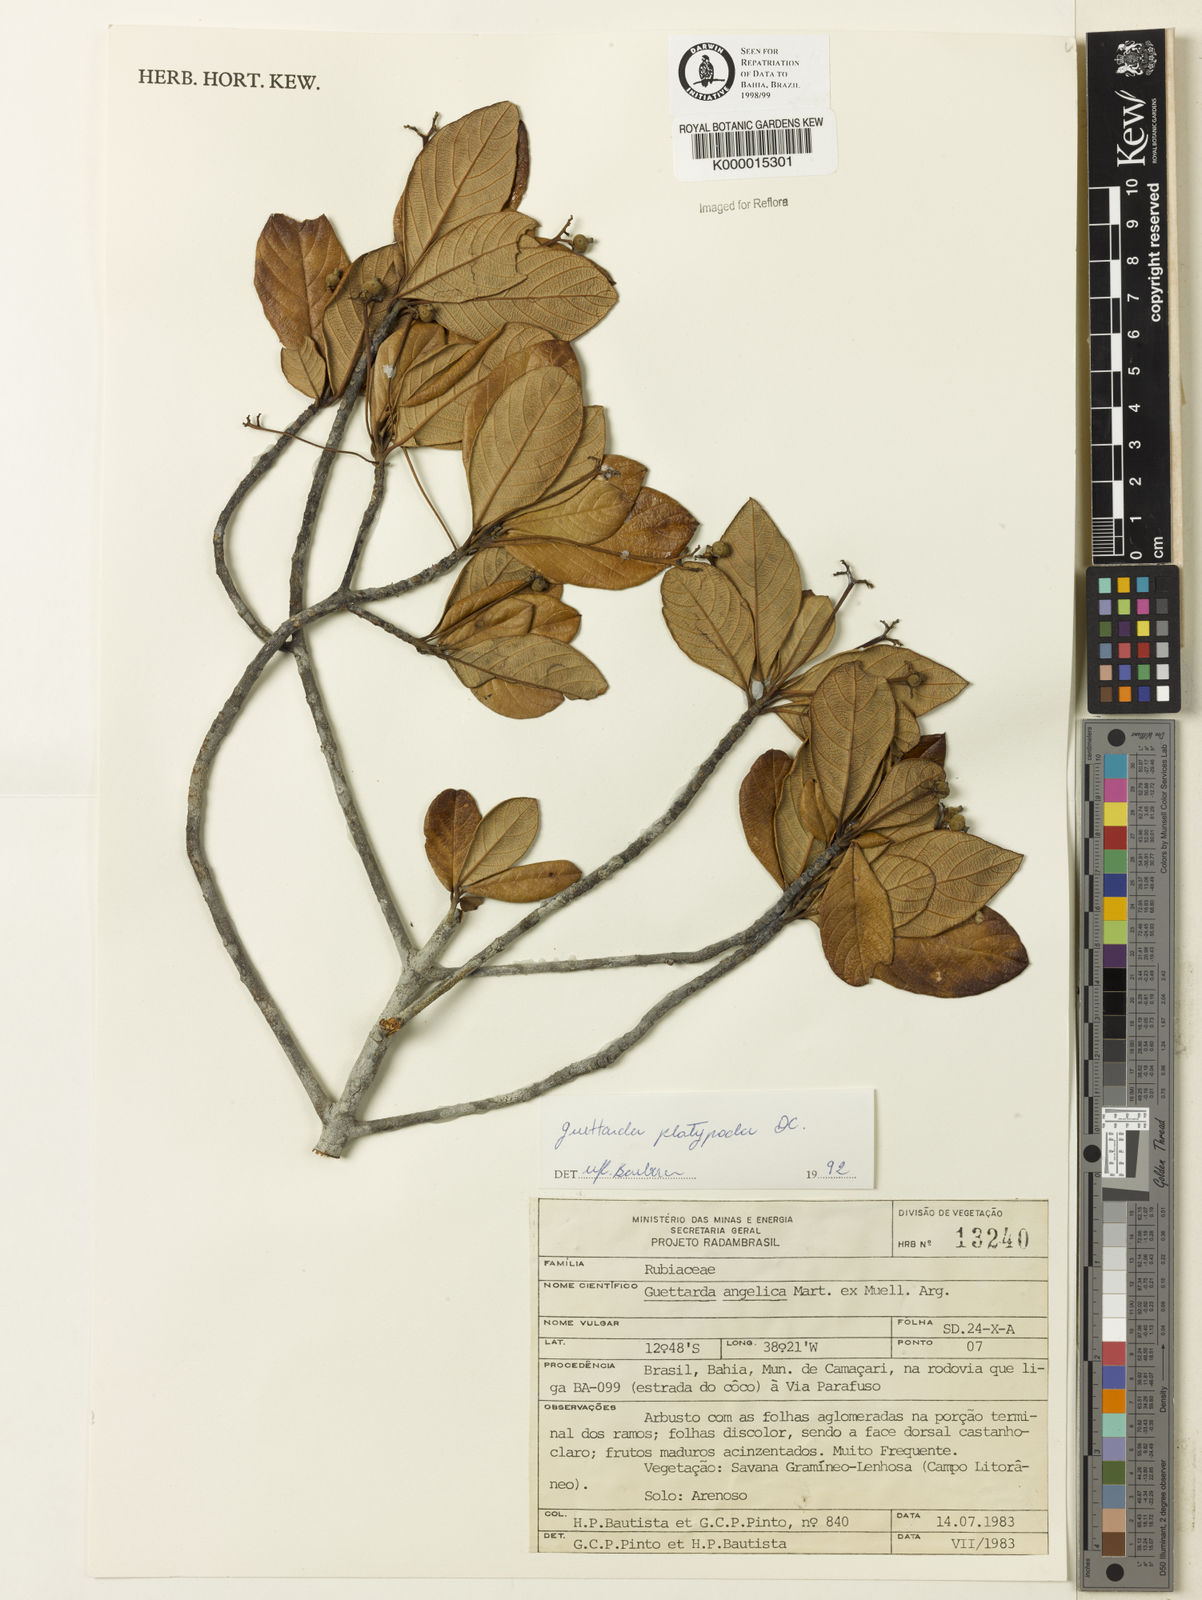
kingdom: Plantae
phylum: Tracheophyta
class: Magnoliopsida
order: Gentianales
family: Rubiaceae
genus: Guettarda
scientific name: Guettarda platypoda
